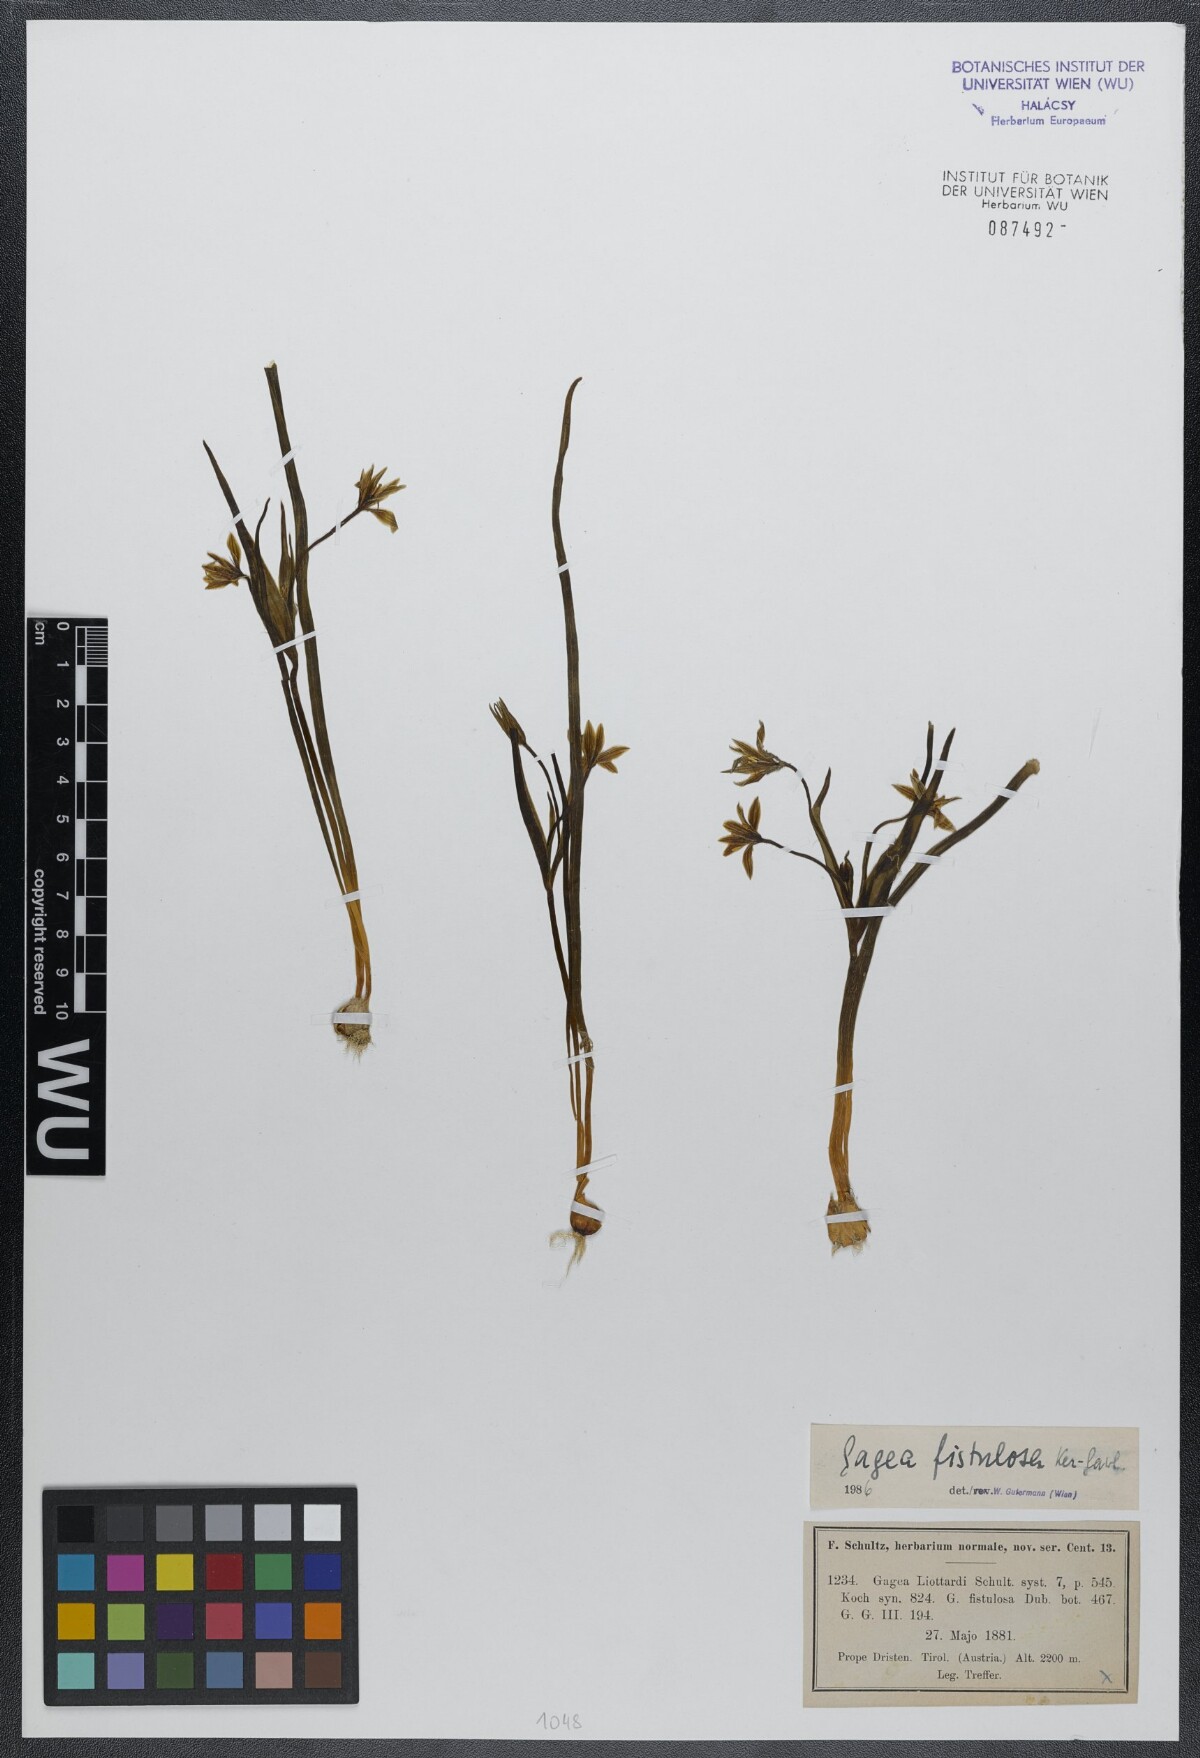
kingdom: Plantae
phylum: Tracheophyta
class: Liliopsida
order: Liliales
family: Liliaceae
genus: Gagea
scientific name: Gagea bohemica
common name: Early star-of-bethlehem
